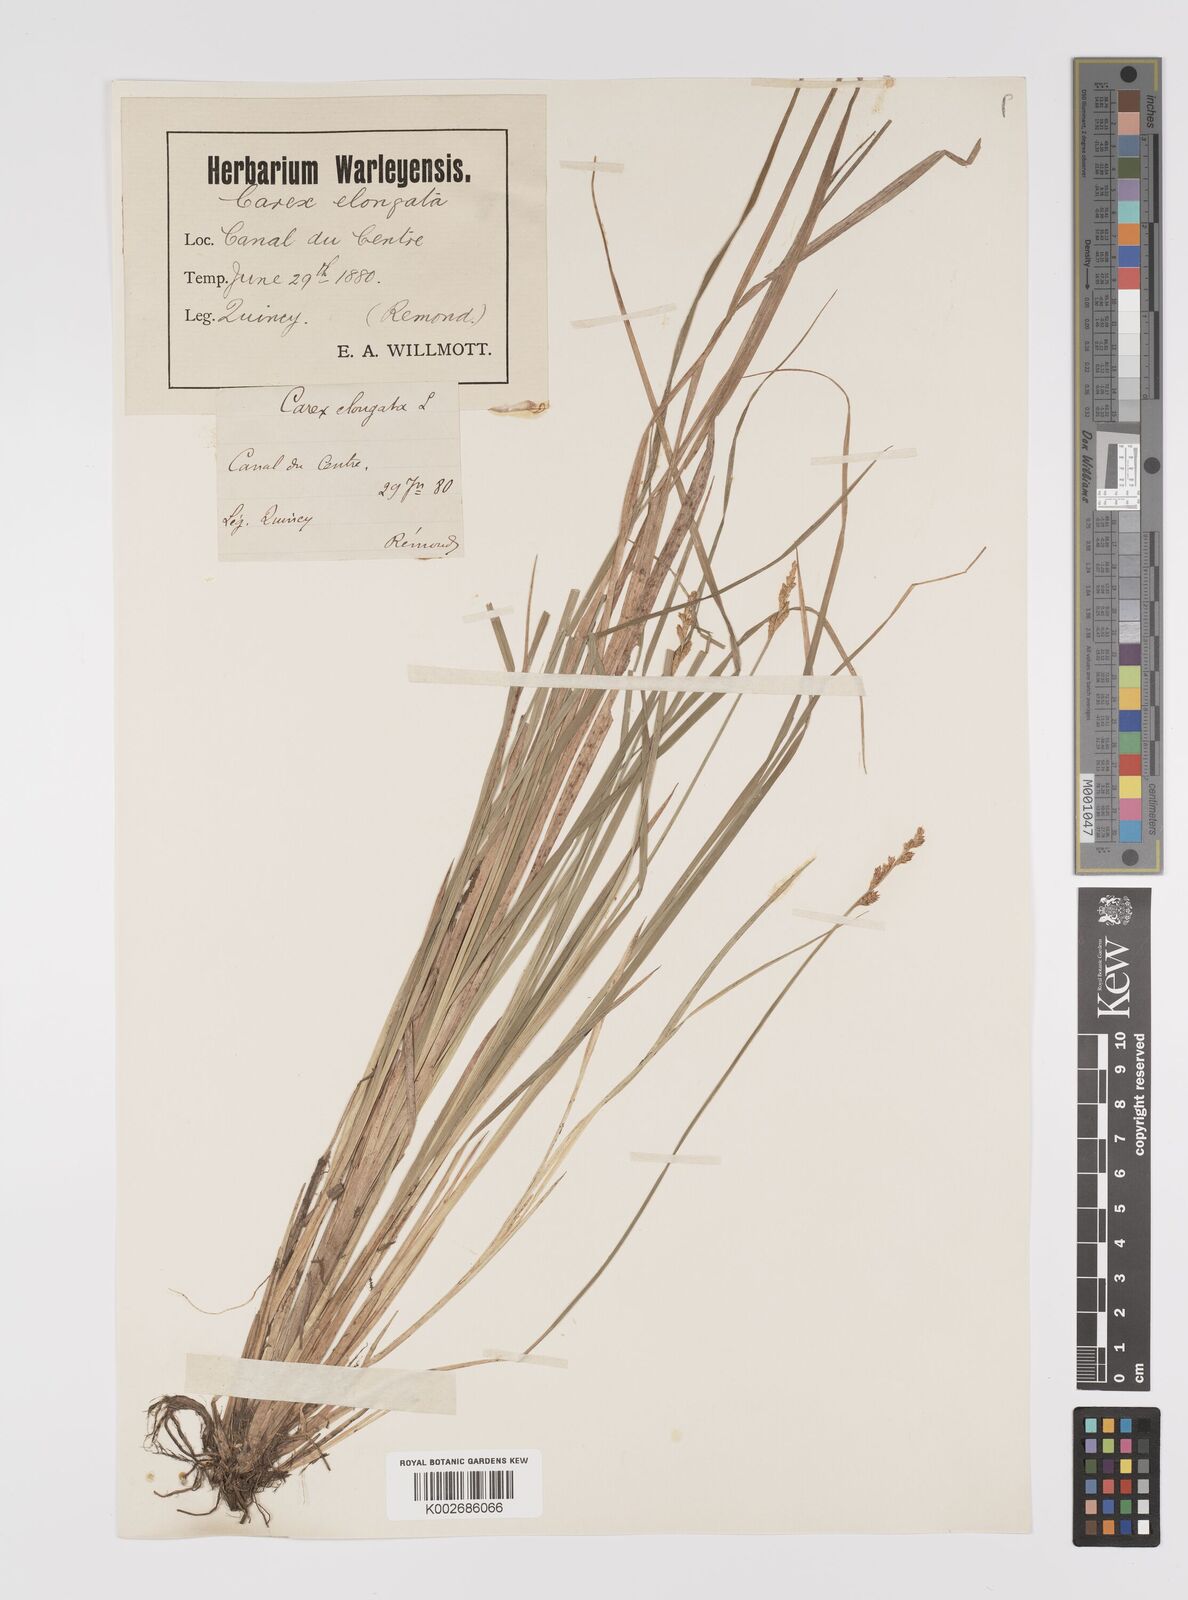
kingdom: Plantae
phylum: Tracheophyta
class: Liliopsida
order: Poales
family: Cyperaceae
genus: Carex
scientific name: Carex elongata
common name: Elongated sedge
